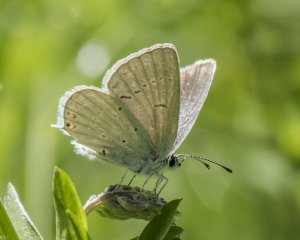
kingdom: Animalia
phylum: Arthropoda
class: Insecta
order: Lepidoptera
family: Lycaenidae
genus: Elkalyce
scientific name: Elkalyce amyntula
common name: Western Tailed-Blue
